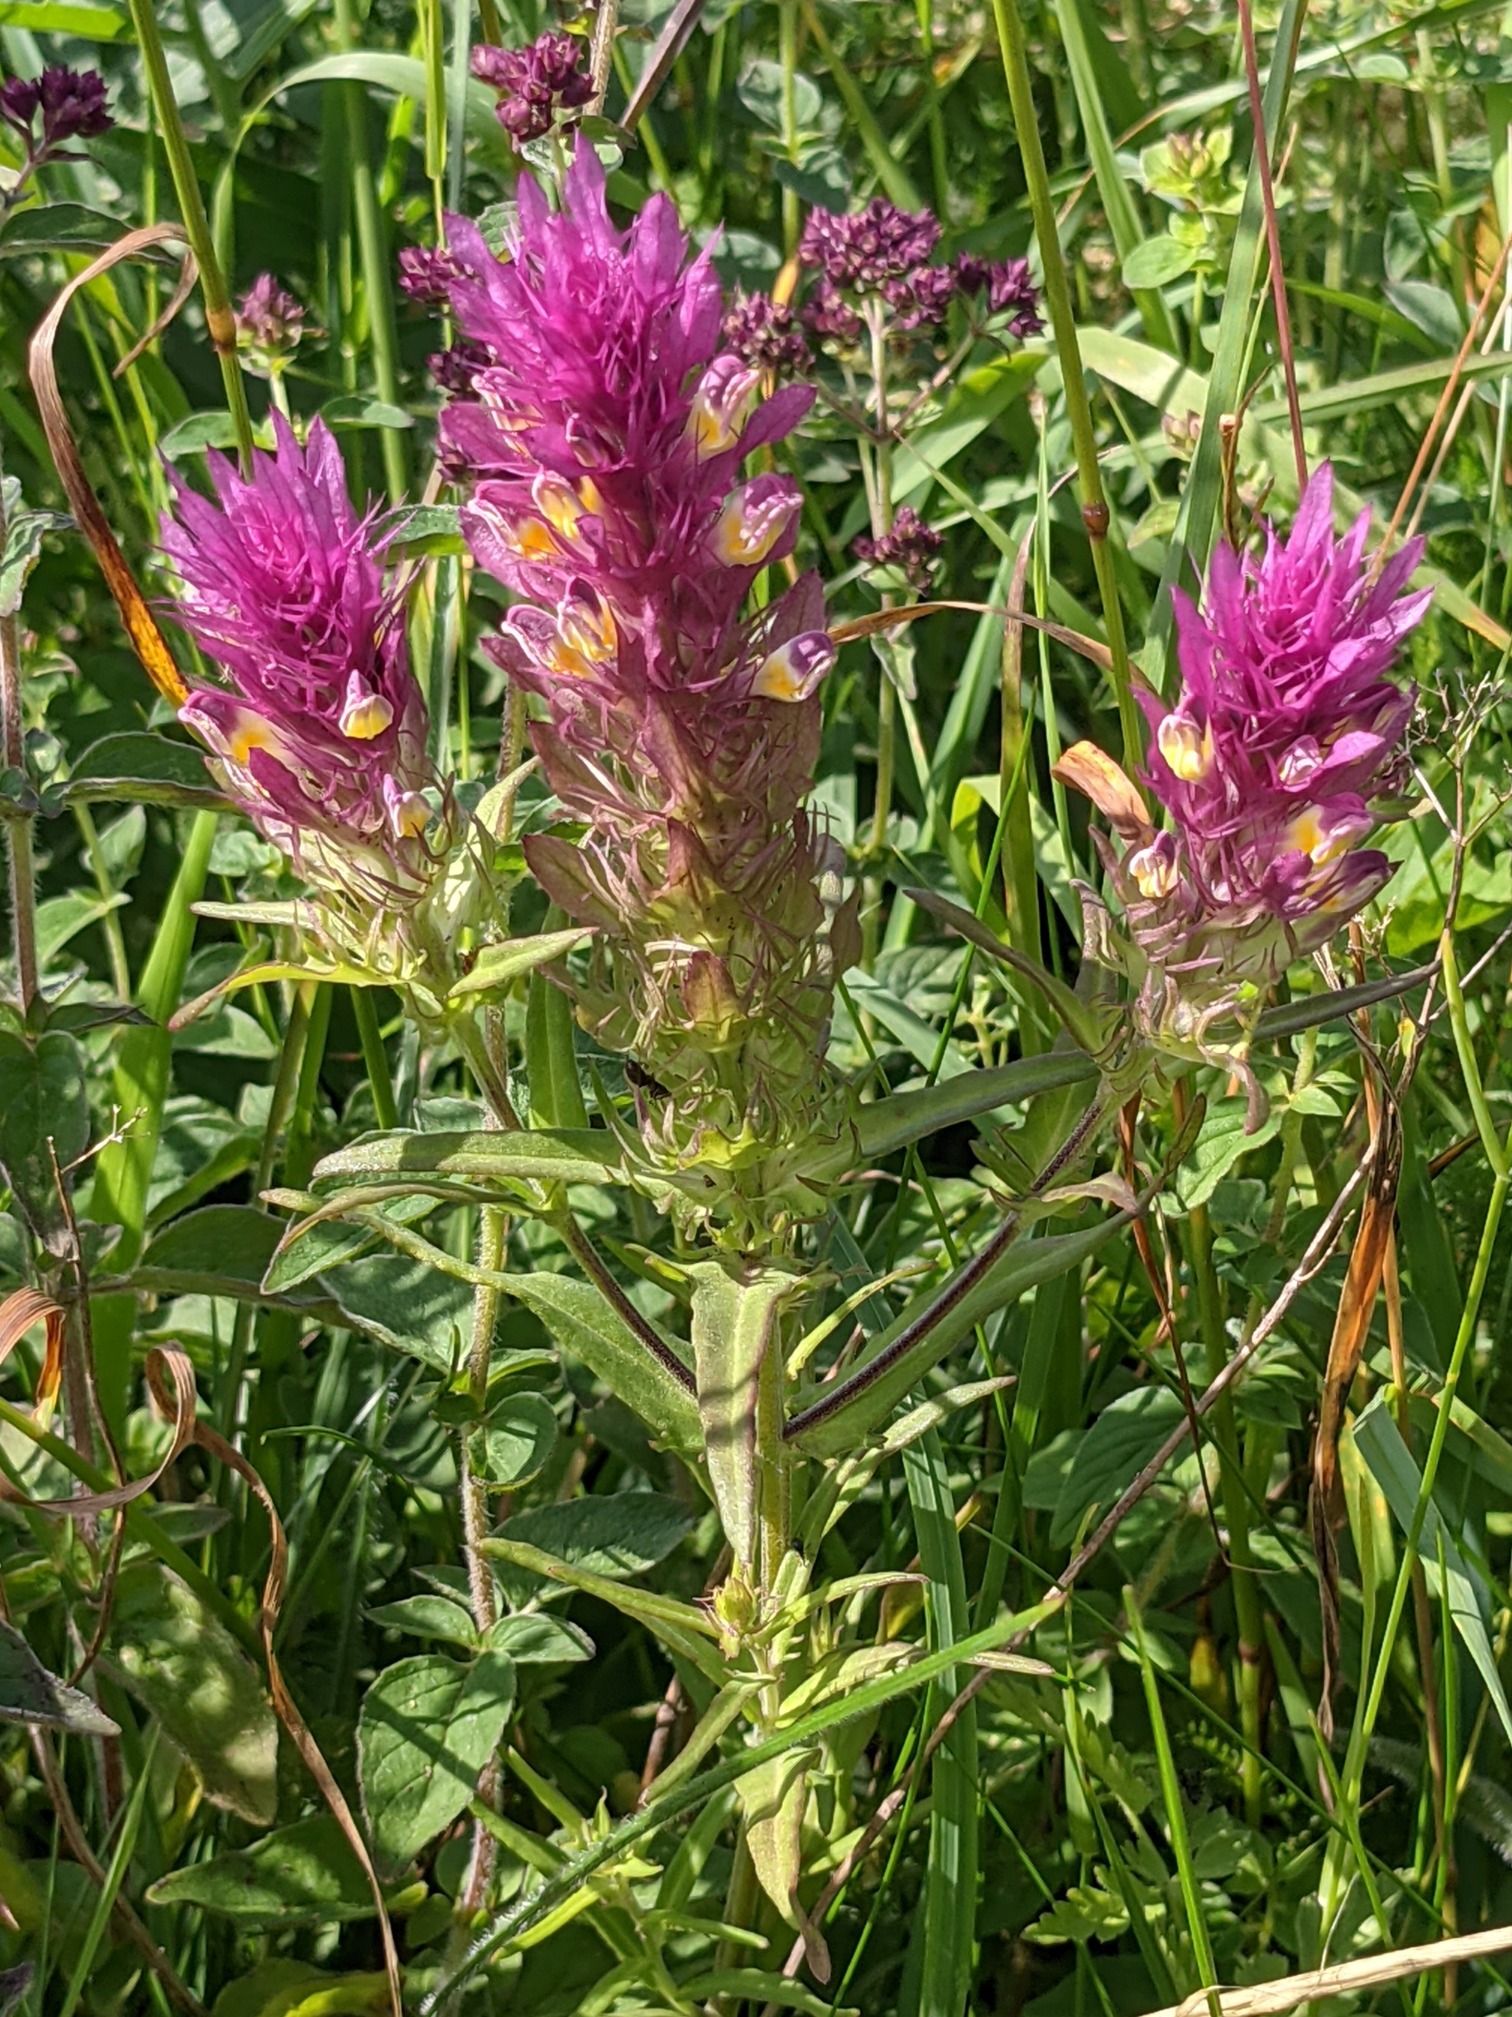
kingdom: Plantae
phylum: Tracheophyta
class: Magnoliopsida
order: Lamiales
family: Orobanchaceae
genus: Melampyrum
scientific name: Melampyrum arvense
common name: Ager-kohvede
